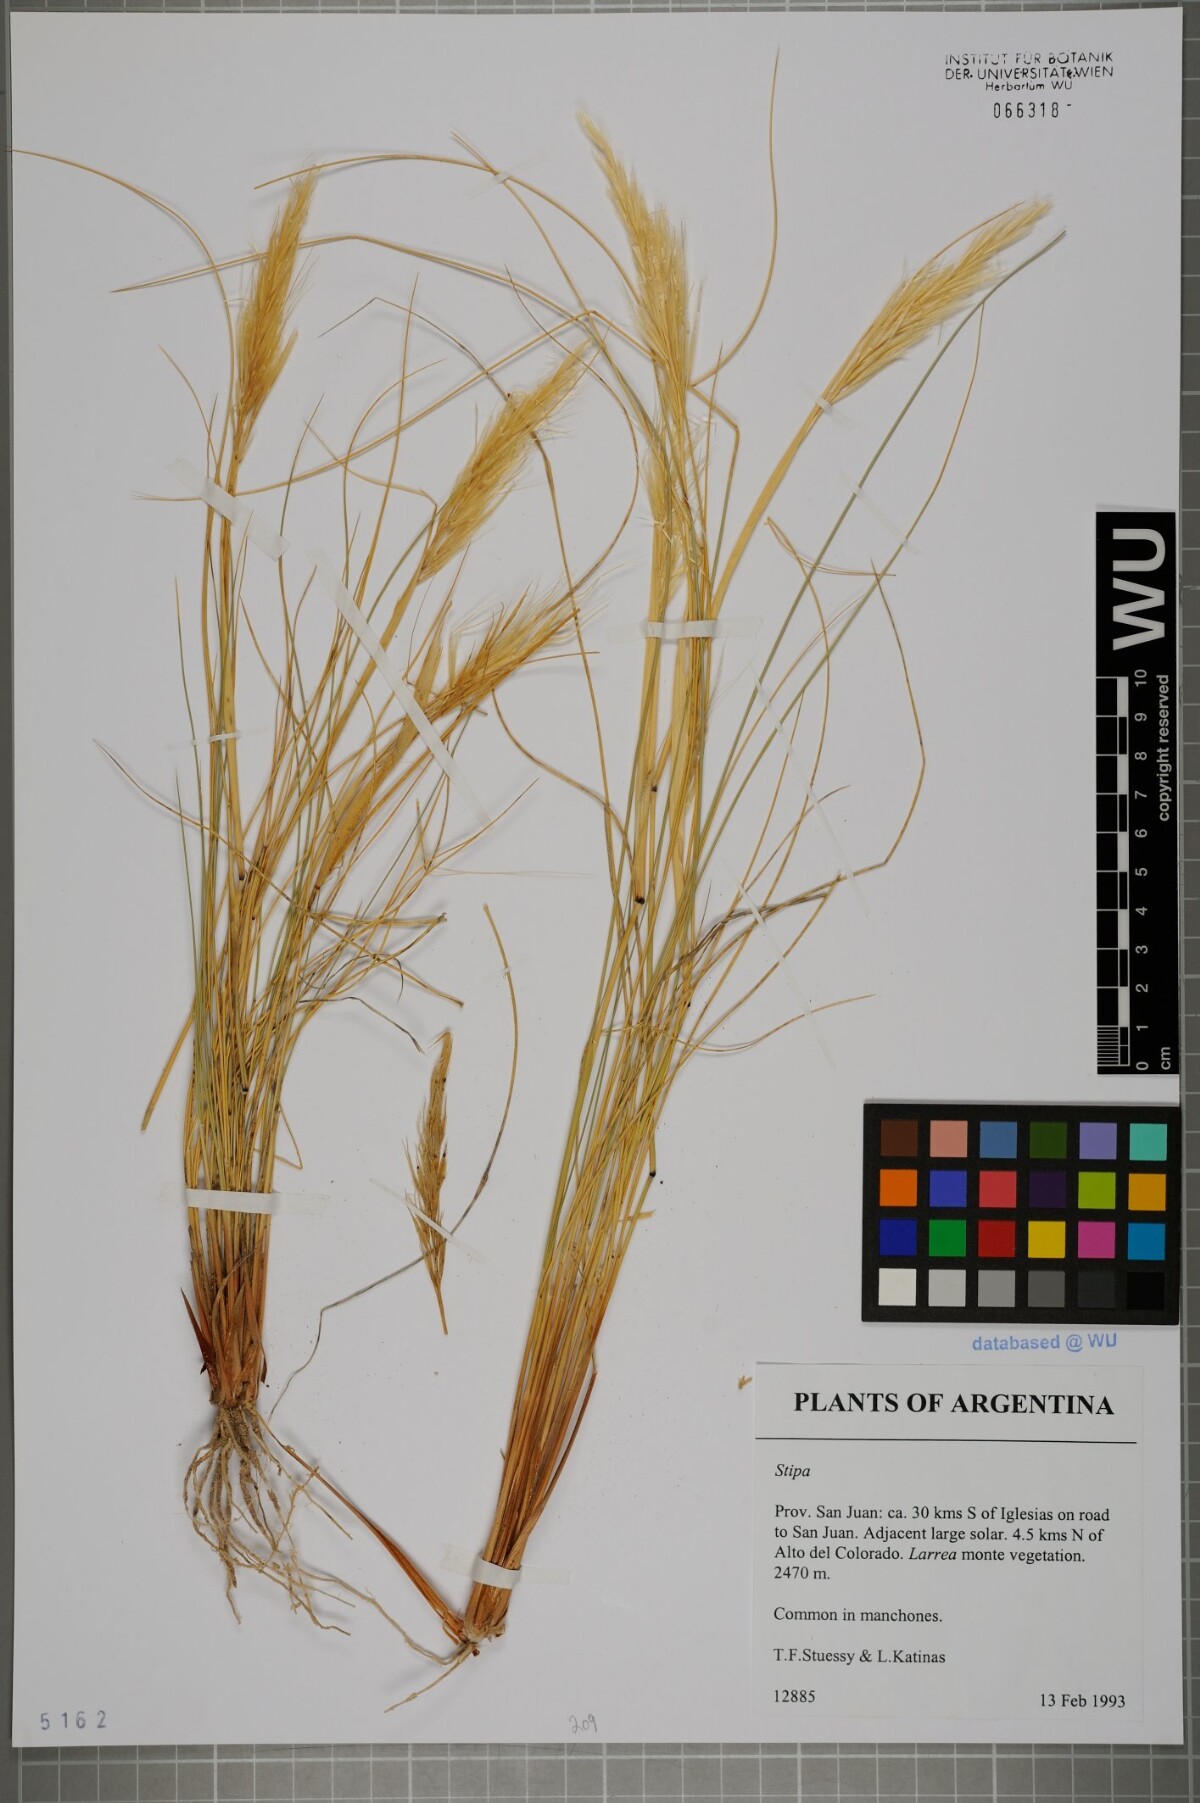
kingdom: Plantae
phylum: Tracheophyta
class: Liliopsida
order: Poales
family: Poaceae
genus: Stipa
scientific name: Stipa
